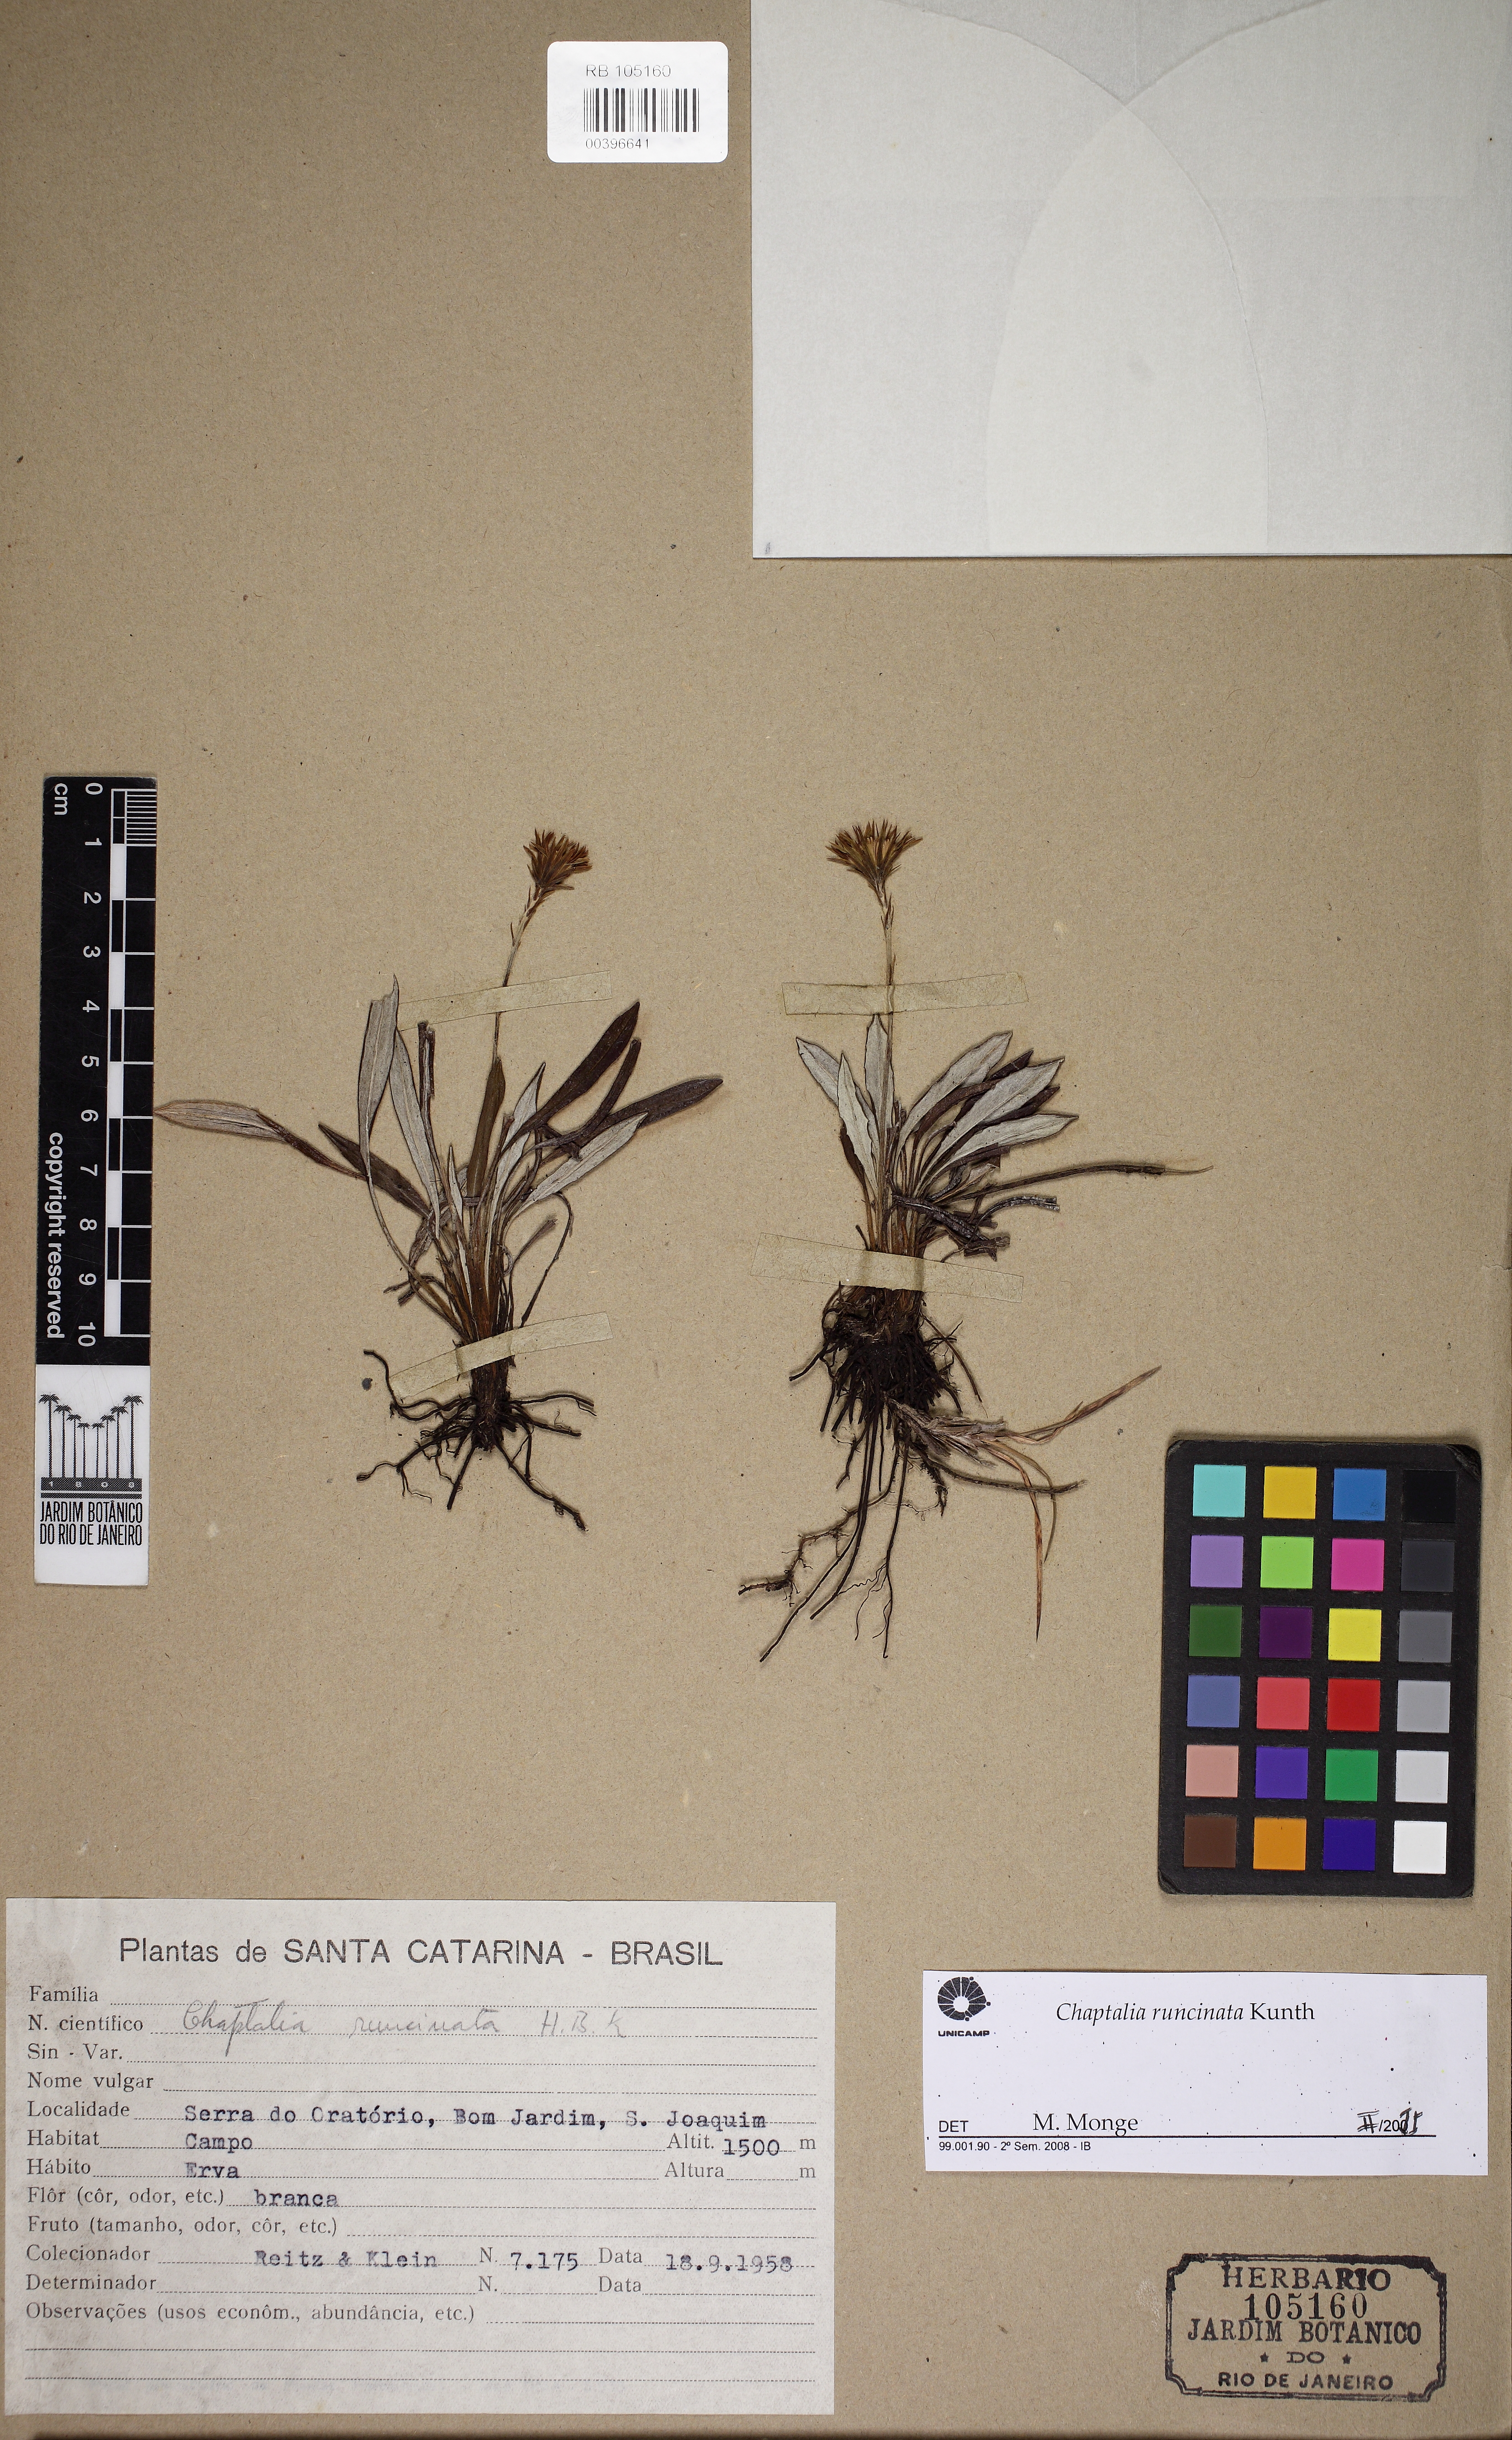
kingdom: Plantae
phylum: Tracheophyta
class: Magnoliopsida
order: Asterales
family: Asteraceae
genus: Chaptalia
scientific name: Chaptalia runcinata
